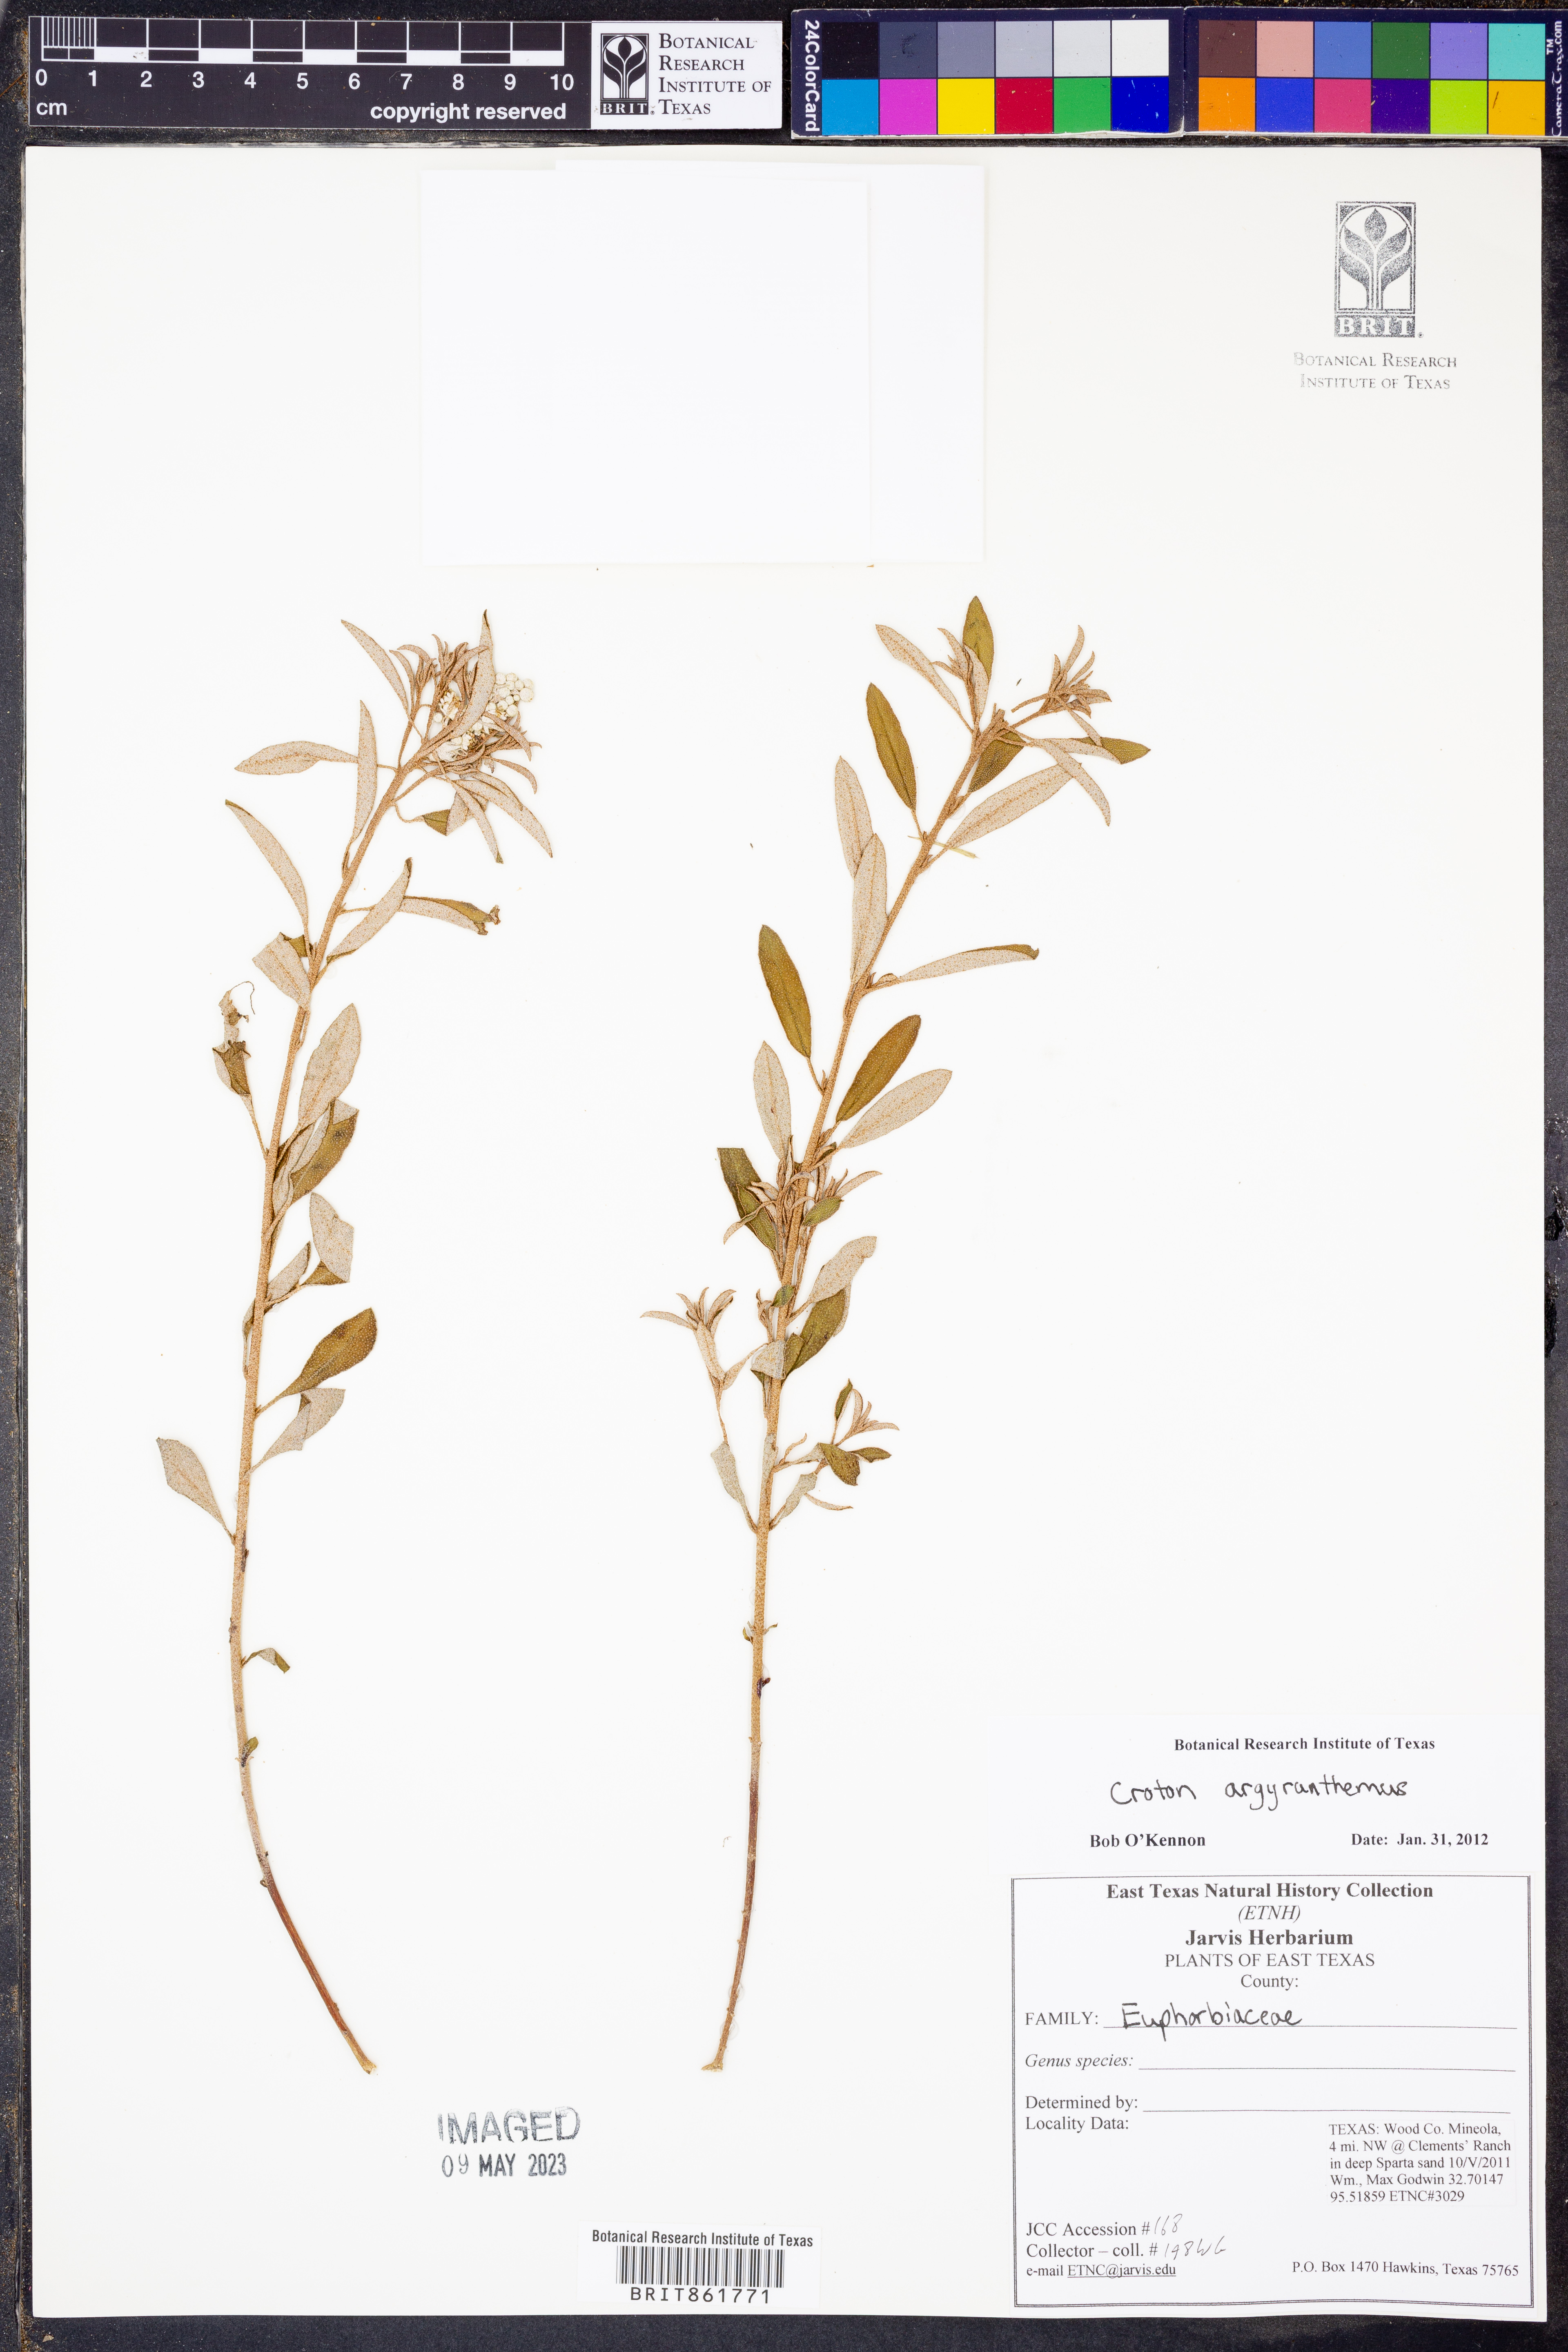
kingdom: Plantae
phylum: Tracheophyta
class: Magnoliopsida
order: Malpighiales
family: Euphorbiaceae
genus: Croton
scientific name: Croton argyranthemus
